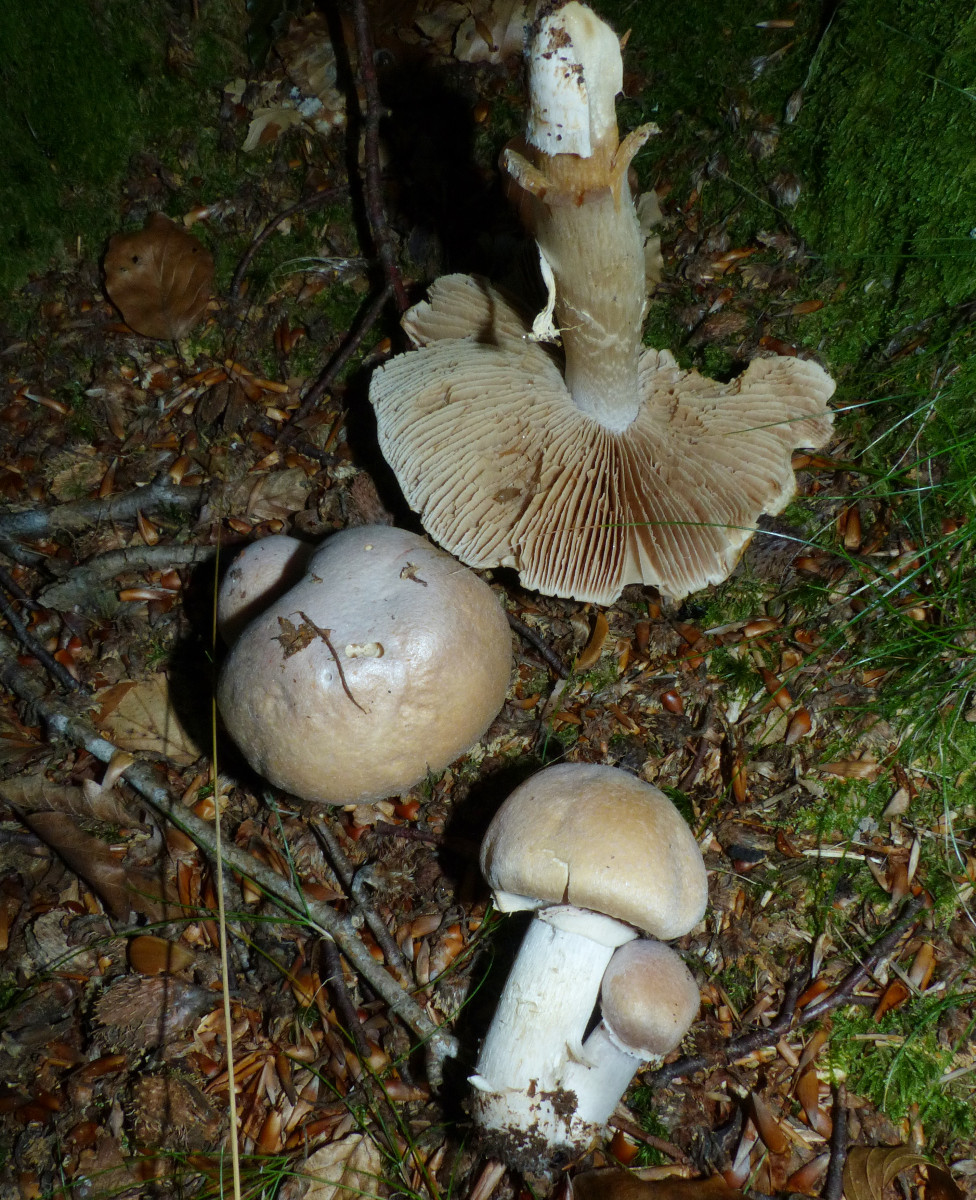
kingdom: Fungi
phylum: Basidiomycota
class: Agaricomycetes
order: Agaricales
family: Cortinariaceae
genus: Cortinarius
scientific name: Cortinarius caperatus
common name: klidhat
